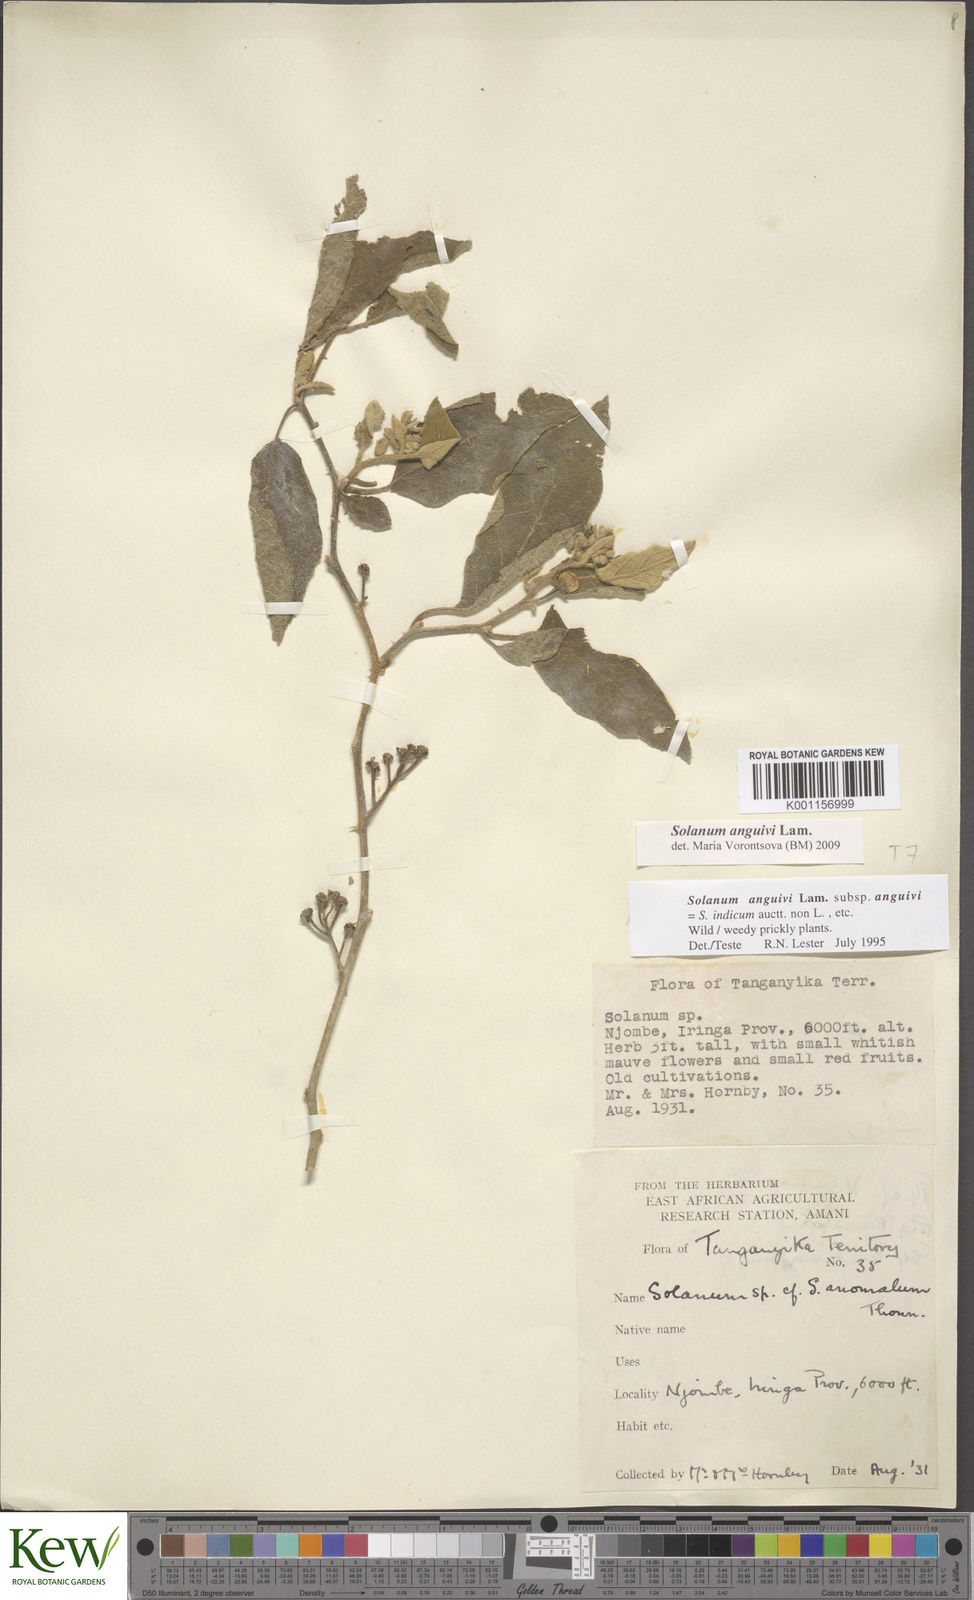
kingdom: Plantae
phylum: Tracheophyta
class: Magnoliopsida
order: Solanales
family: Solanaceae
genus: Solanum
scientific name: Solanum anguivi
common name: Forest bitterberry
